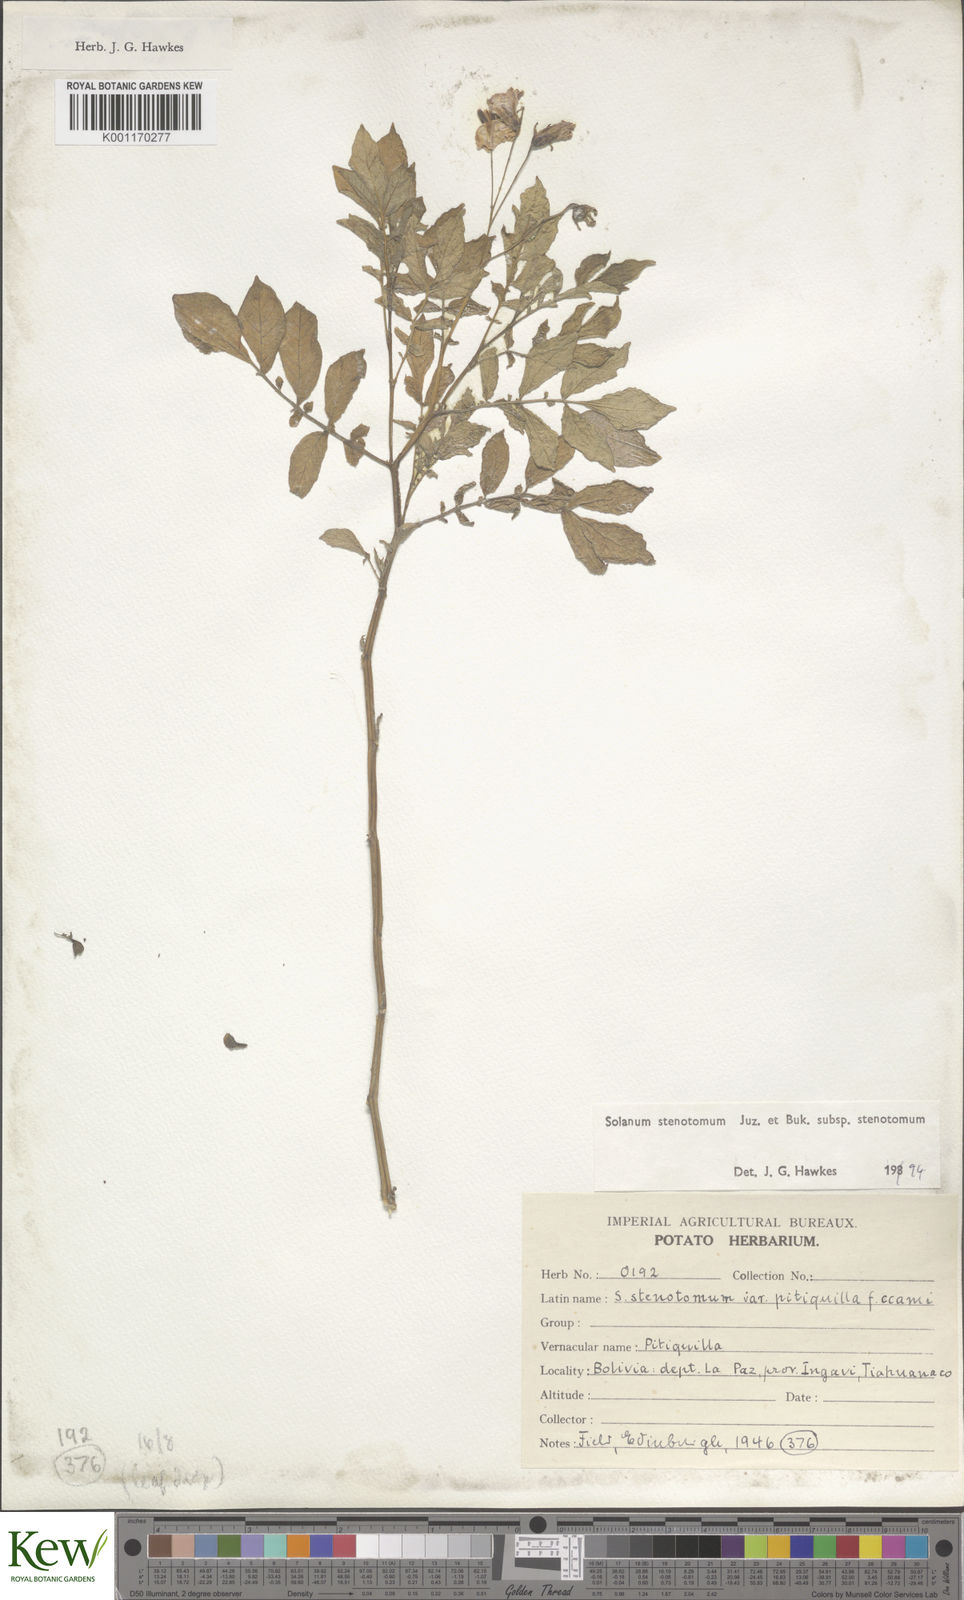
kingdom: Plantae
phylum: Tracheophyta
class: Magnoliopsida
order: Solanales
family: Solanaceae
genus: Solanum
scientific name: Solanum tuberosum
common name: Potato
